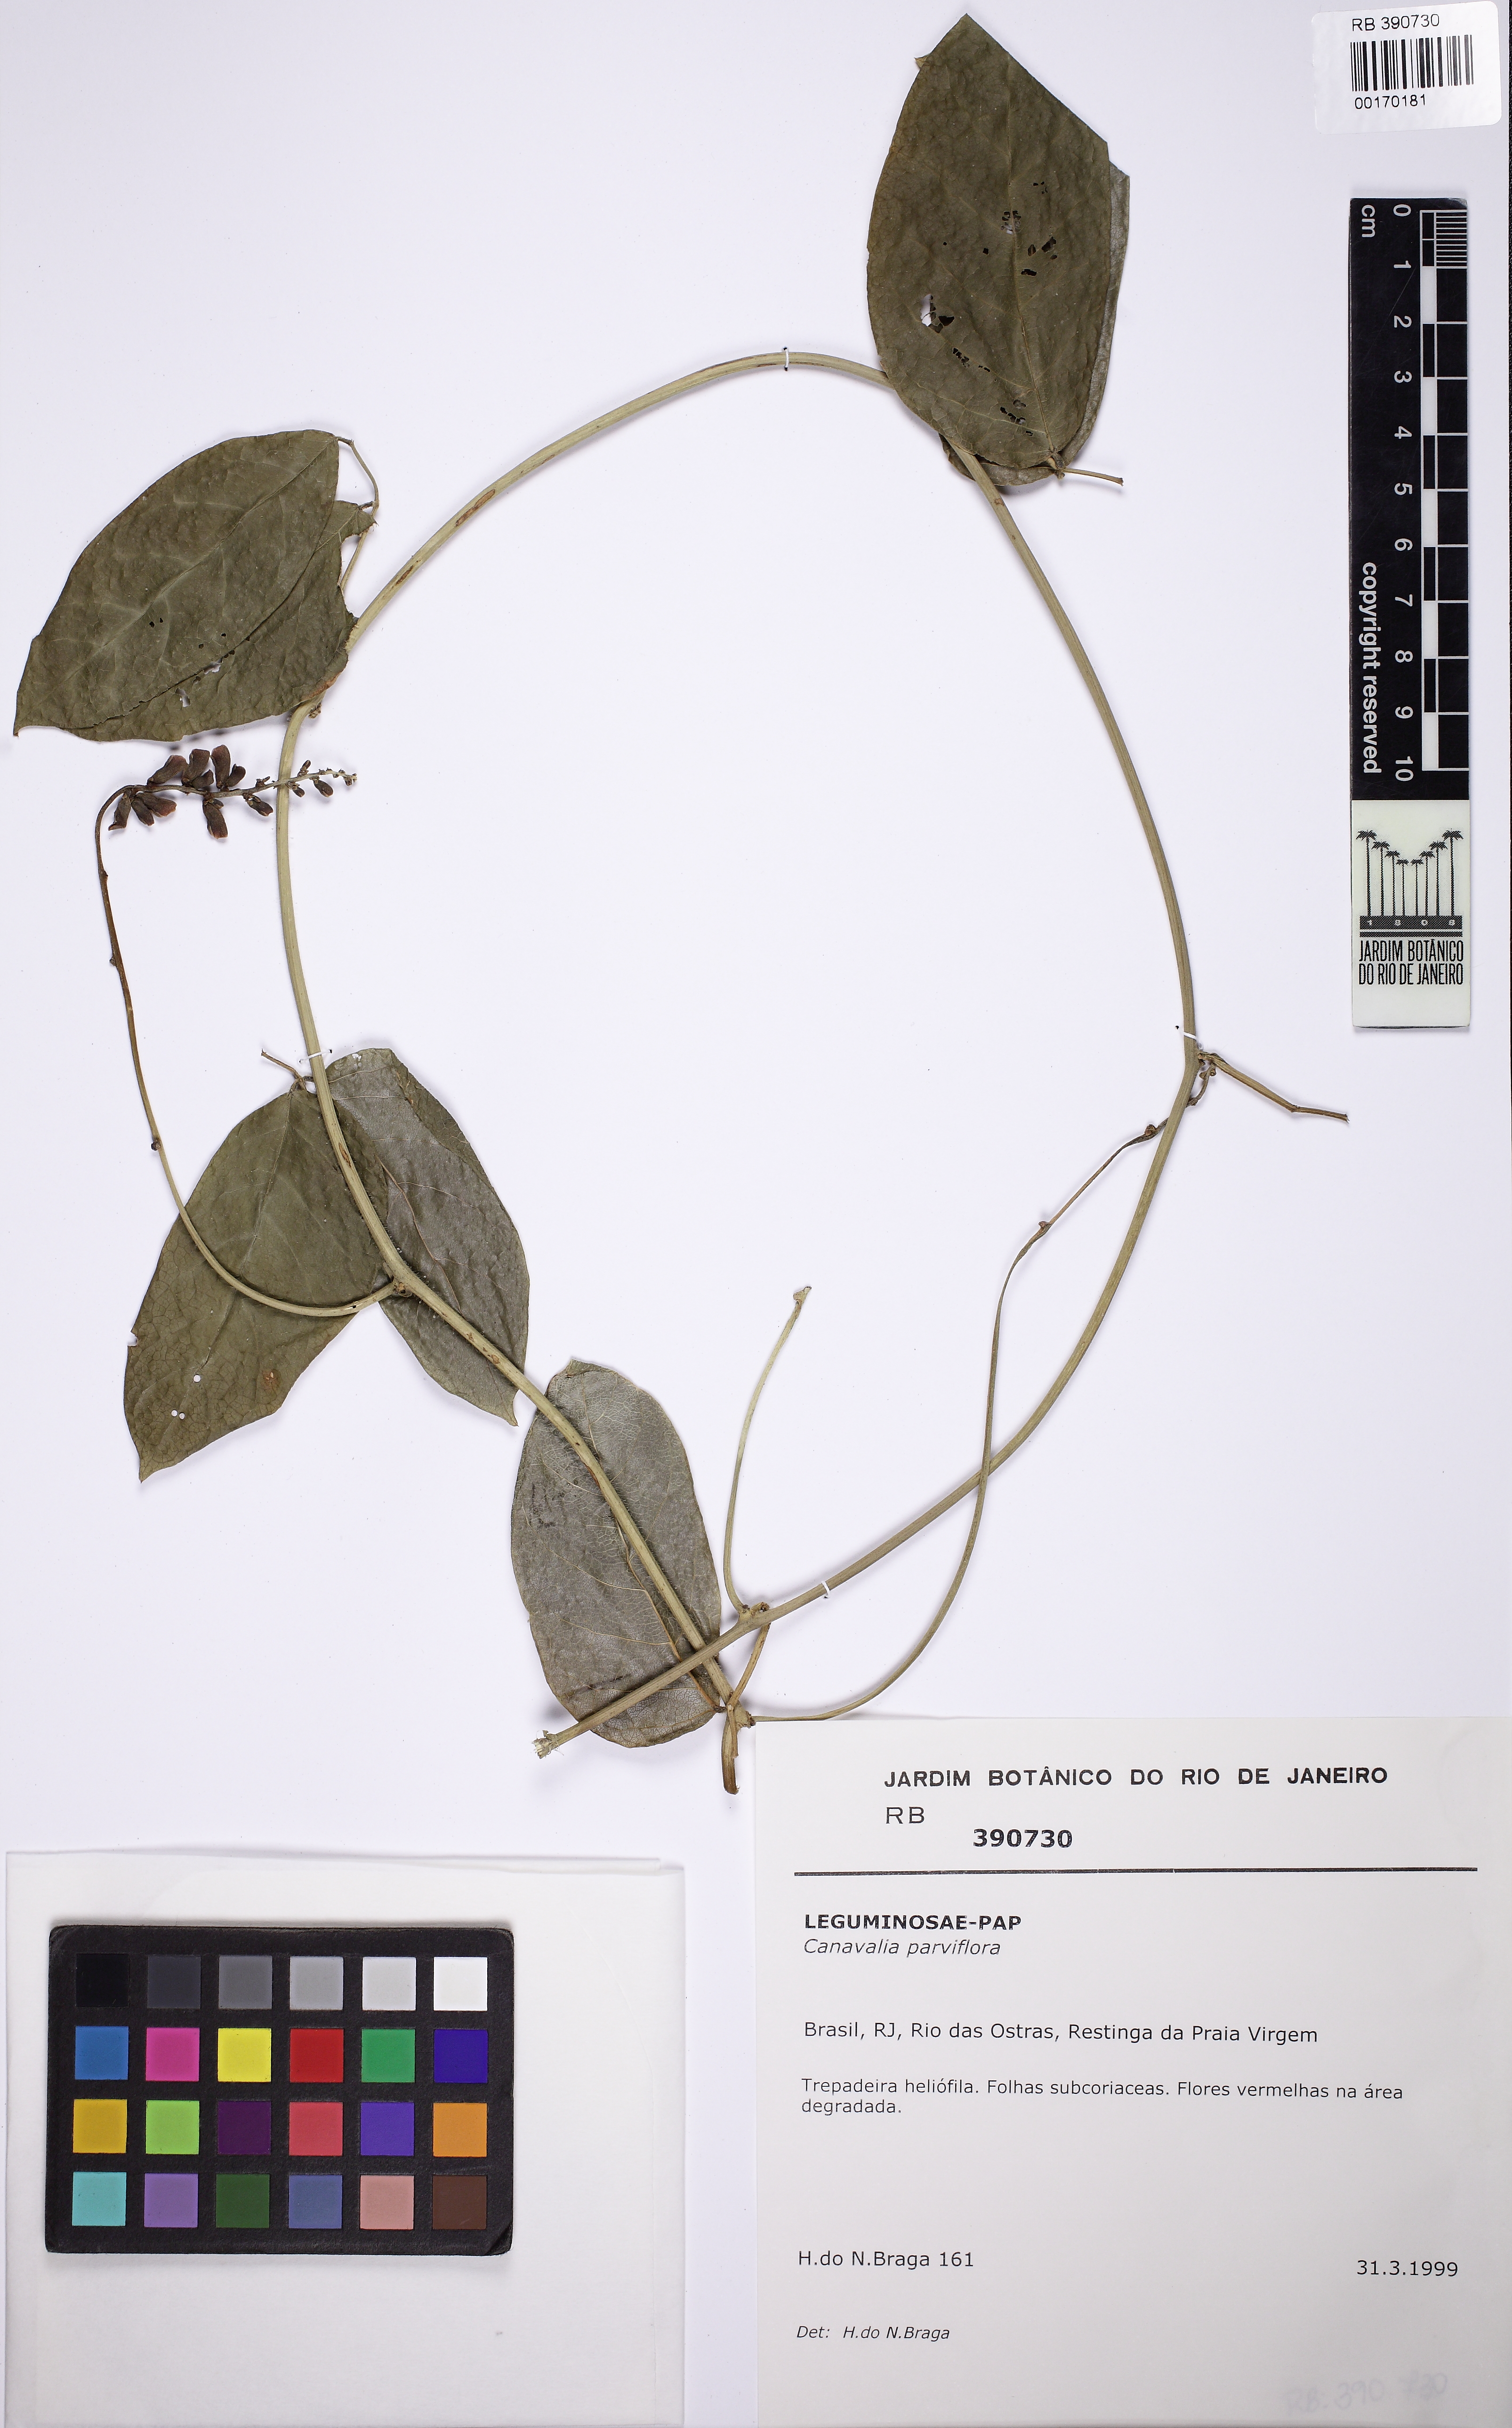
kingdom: Plantae
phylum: Tracheophyta
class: Magnoliopsida
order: Fabales
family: Fabaceae
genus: Canavalia
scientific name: Canavalia parviflora
